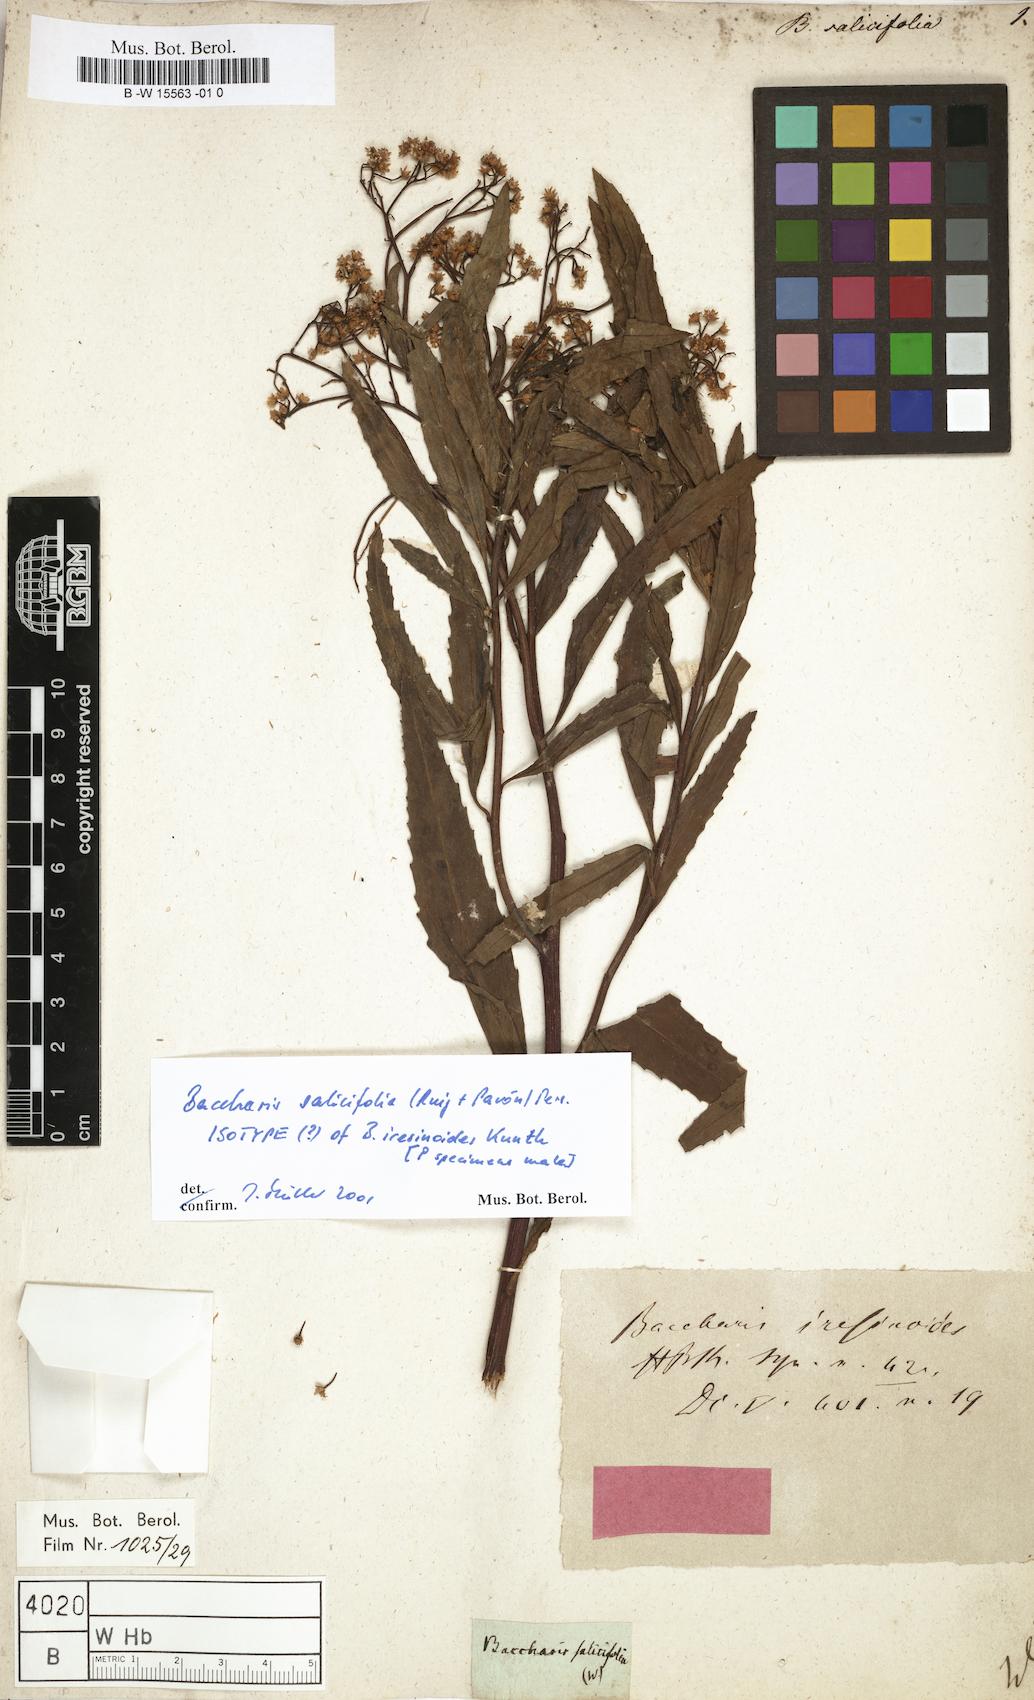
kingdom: Plantae
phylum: Tracheophyta
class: Magnoliopsida
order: Asterales
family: Asteraceae
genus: Baccharis
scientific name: Baccharis salicifolia
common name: Sticky baccharis
